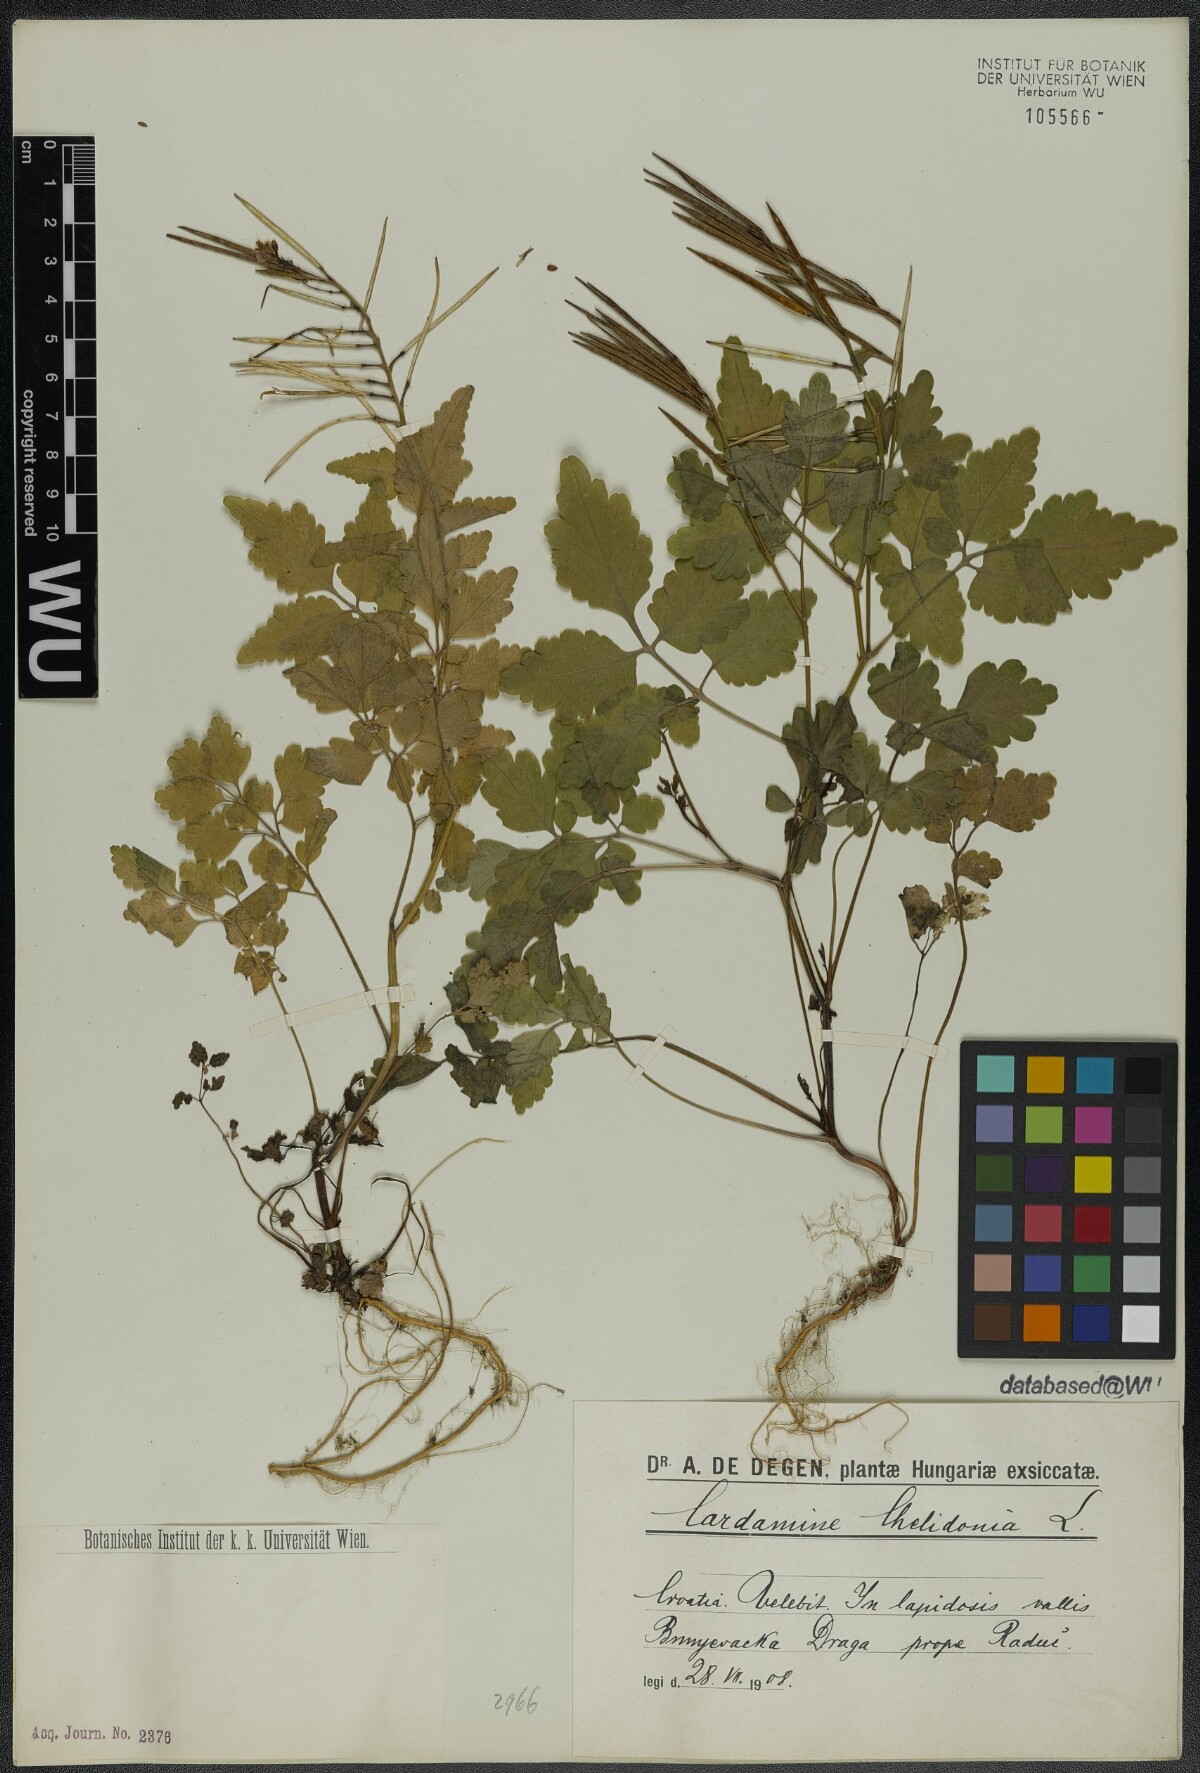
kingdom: Plantae
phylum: Tracheophyta
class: Magnoliopsida
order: Brassicales
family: Brassicaceae
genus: Cardamine
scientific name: Cardamine chelidonia
